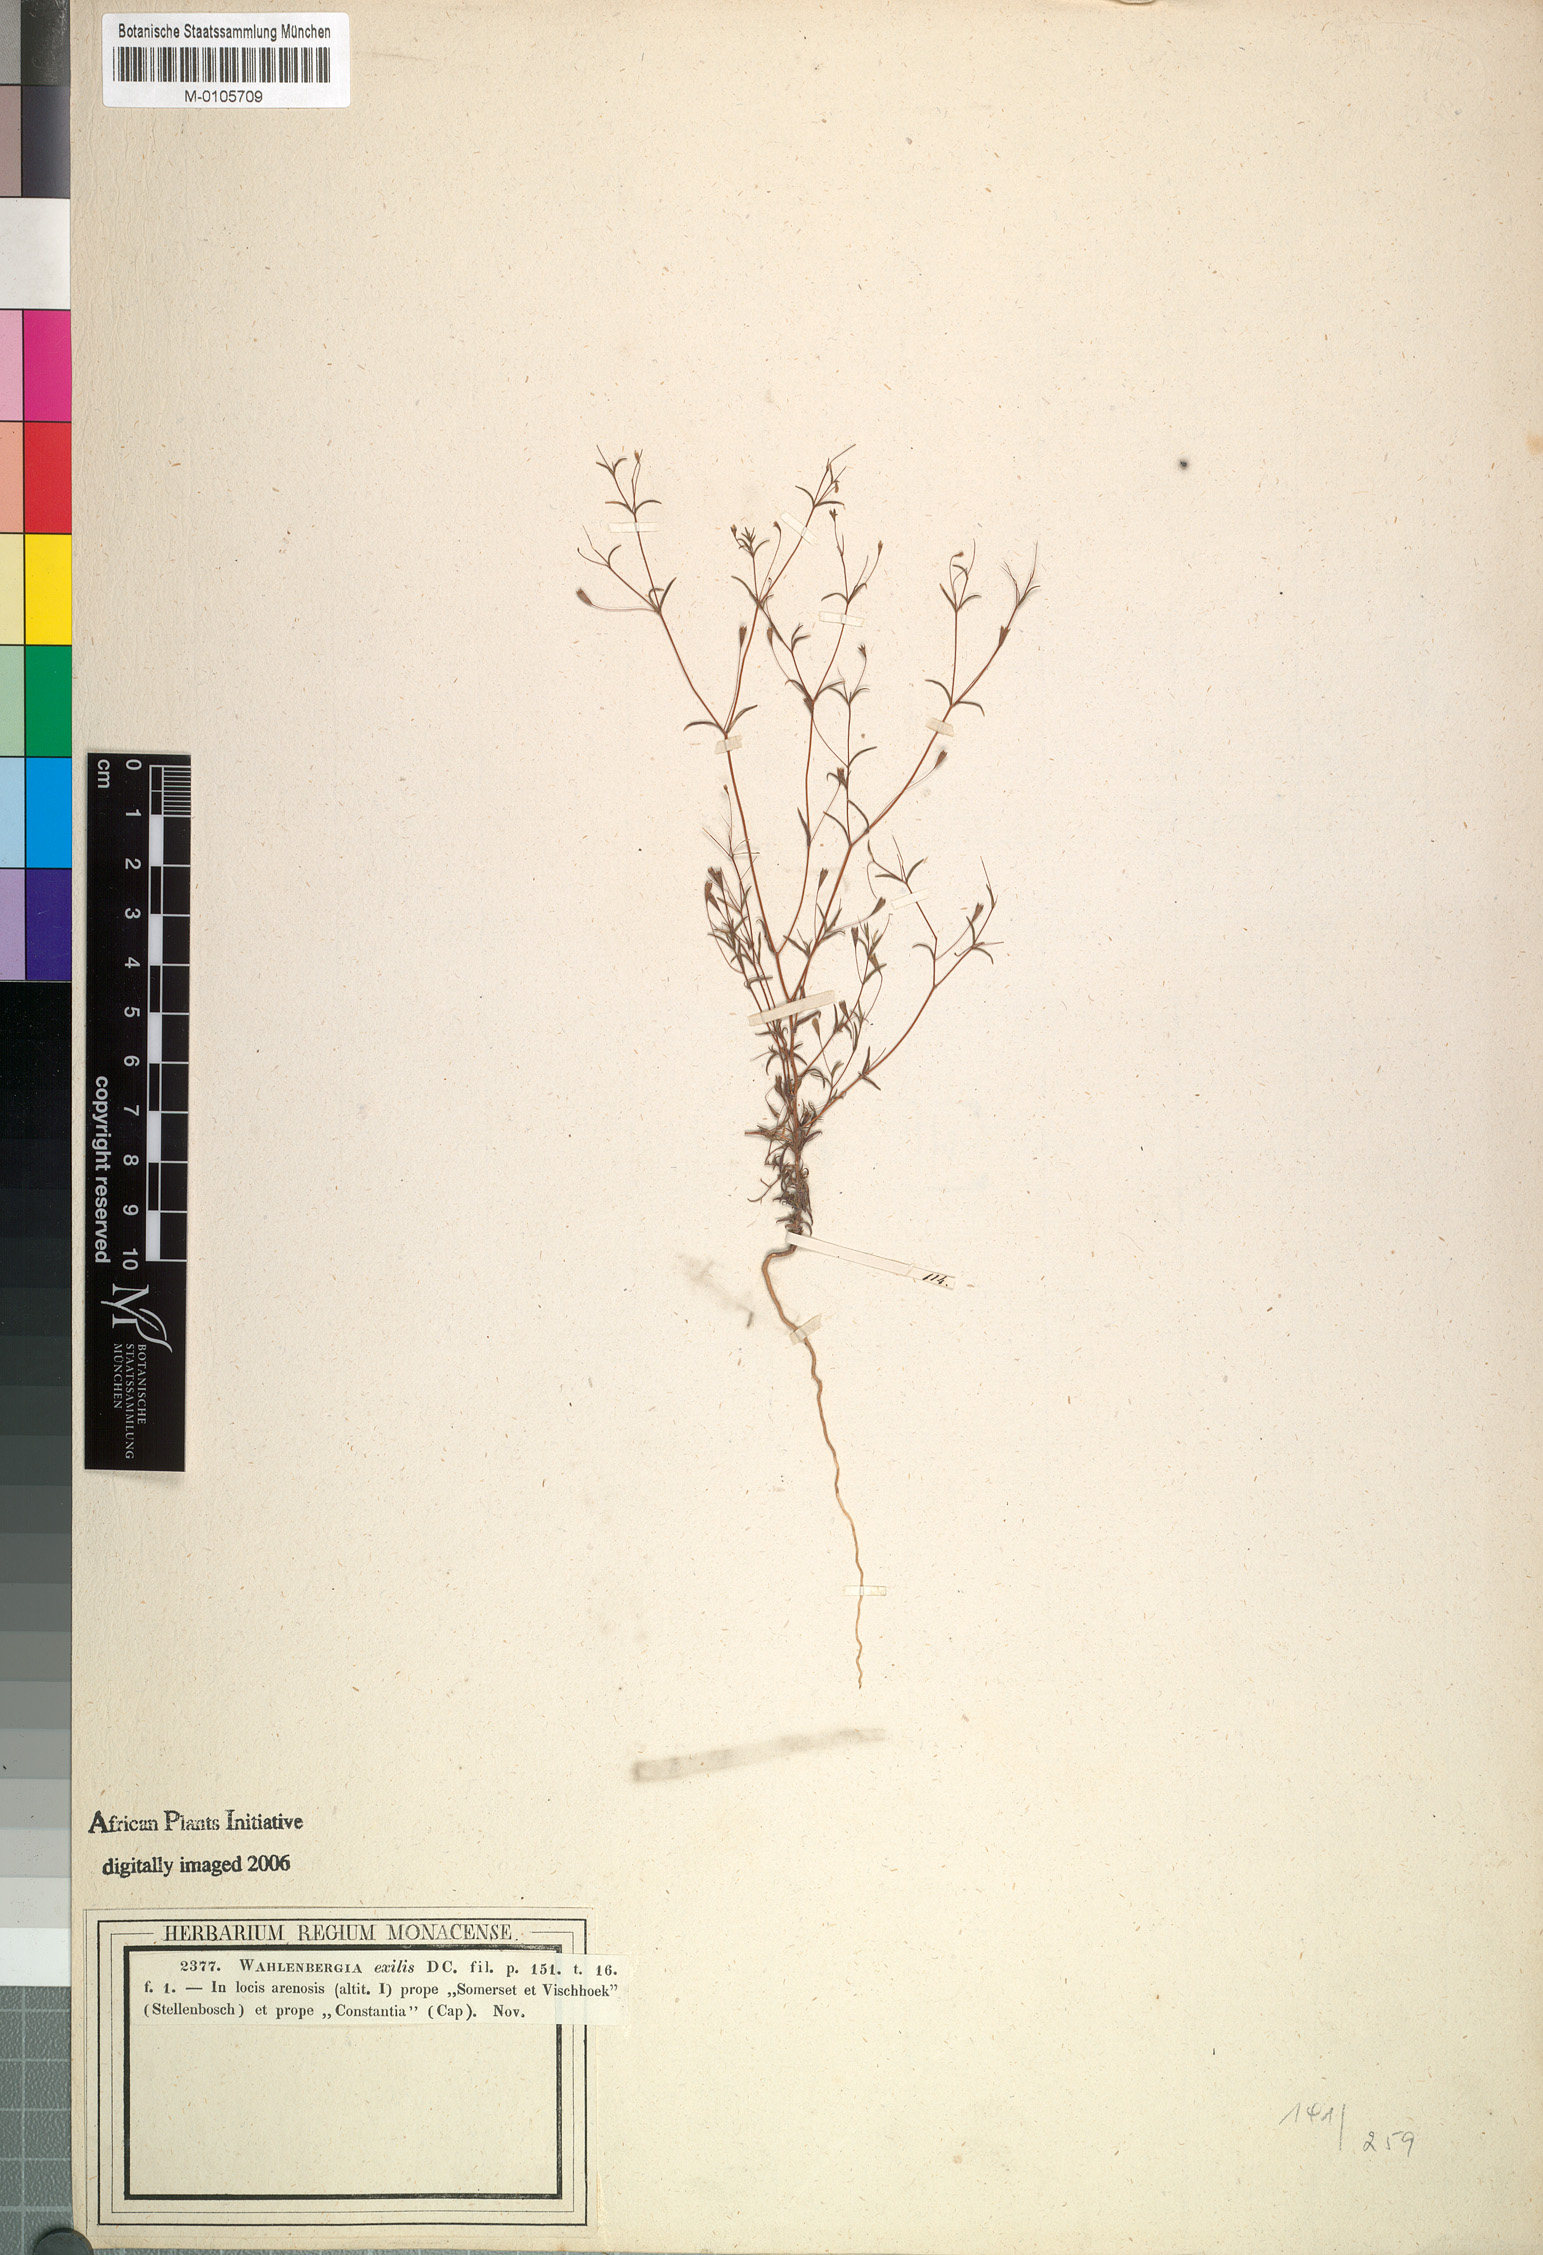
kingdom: Plantae
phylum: Tracheophyta
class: Magnoliopsida
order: Asterales
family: Campanulaceae
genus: Wahlenbergia
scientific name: Wahlenbergia exilis
